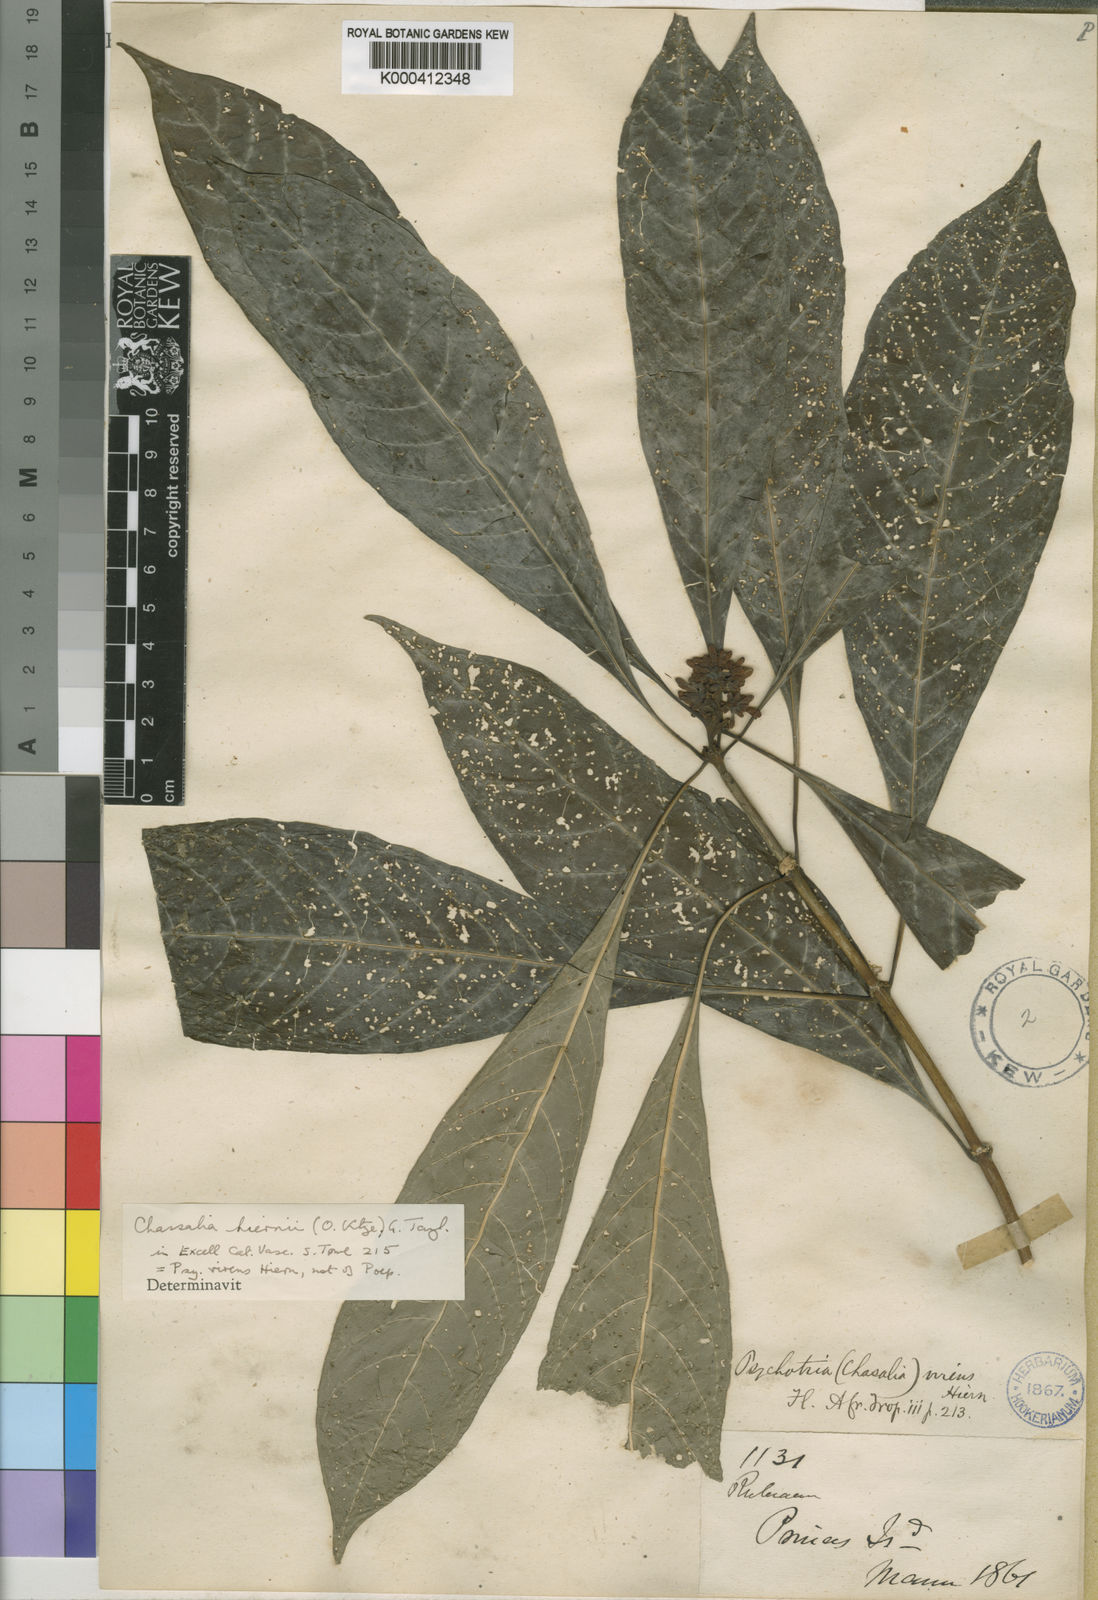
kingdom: Plantae
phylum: Tracheophyta
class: Magnoliopsida
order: Gentianales
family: Rubiaceae
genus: Chassalia
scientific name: Chassalia hiernii
